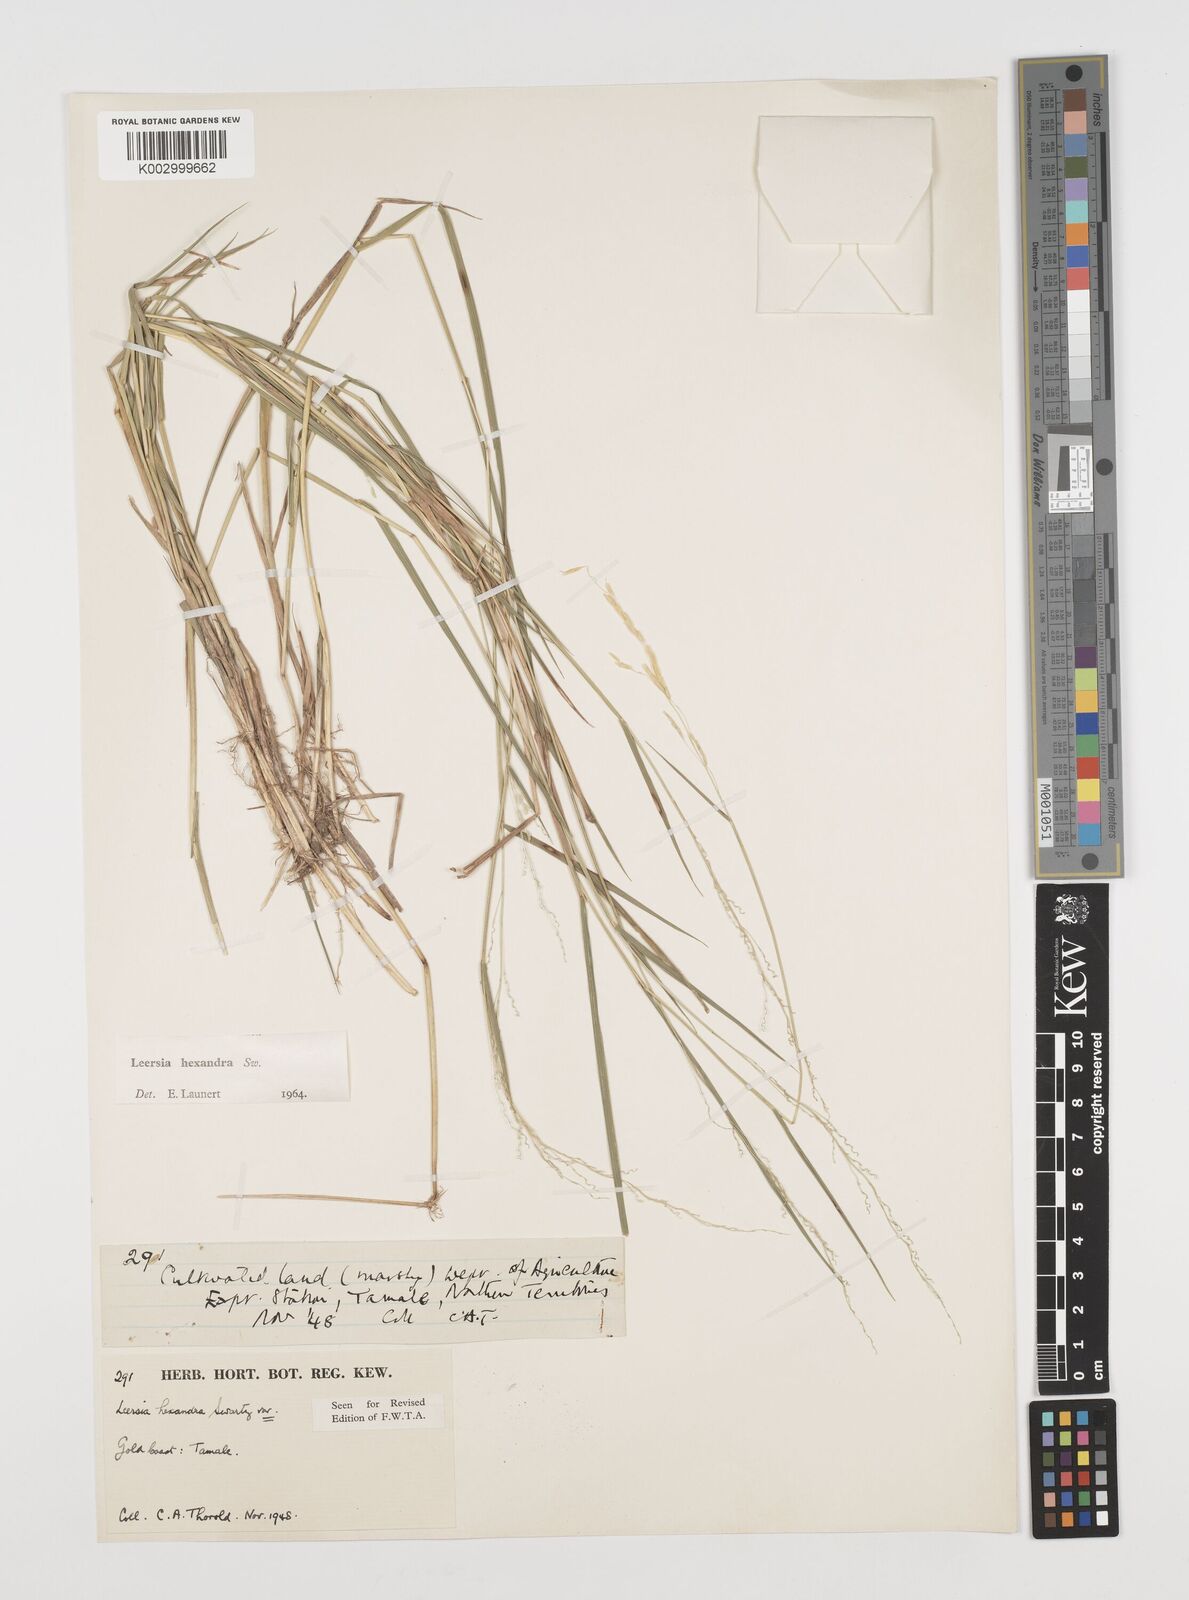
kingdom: Plantae
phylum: Tracheophyta
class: Liliopsida
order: Poales
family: Poaceae
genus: Leersia
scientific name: Leersia hexandra
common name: Southern cut grass
